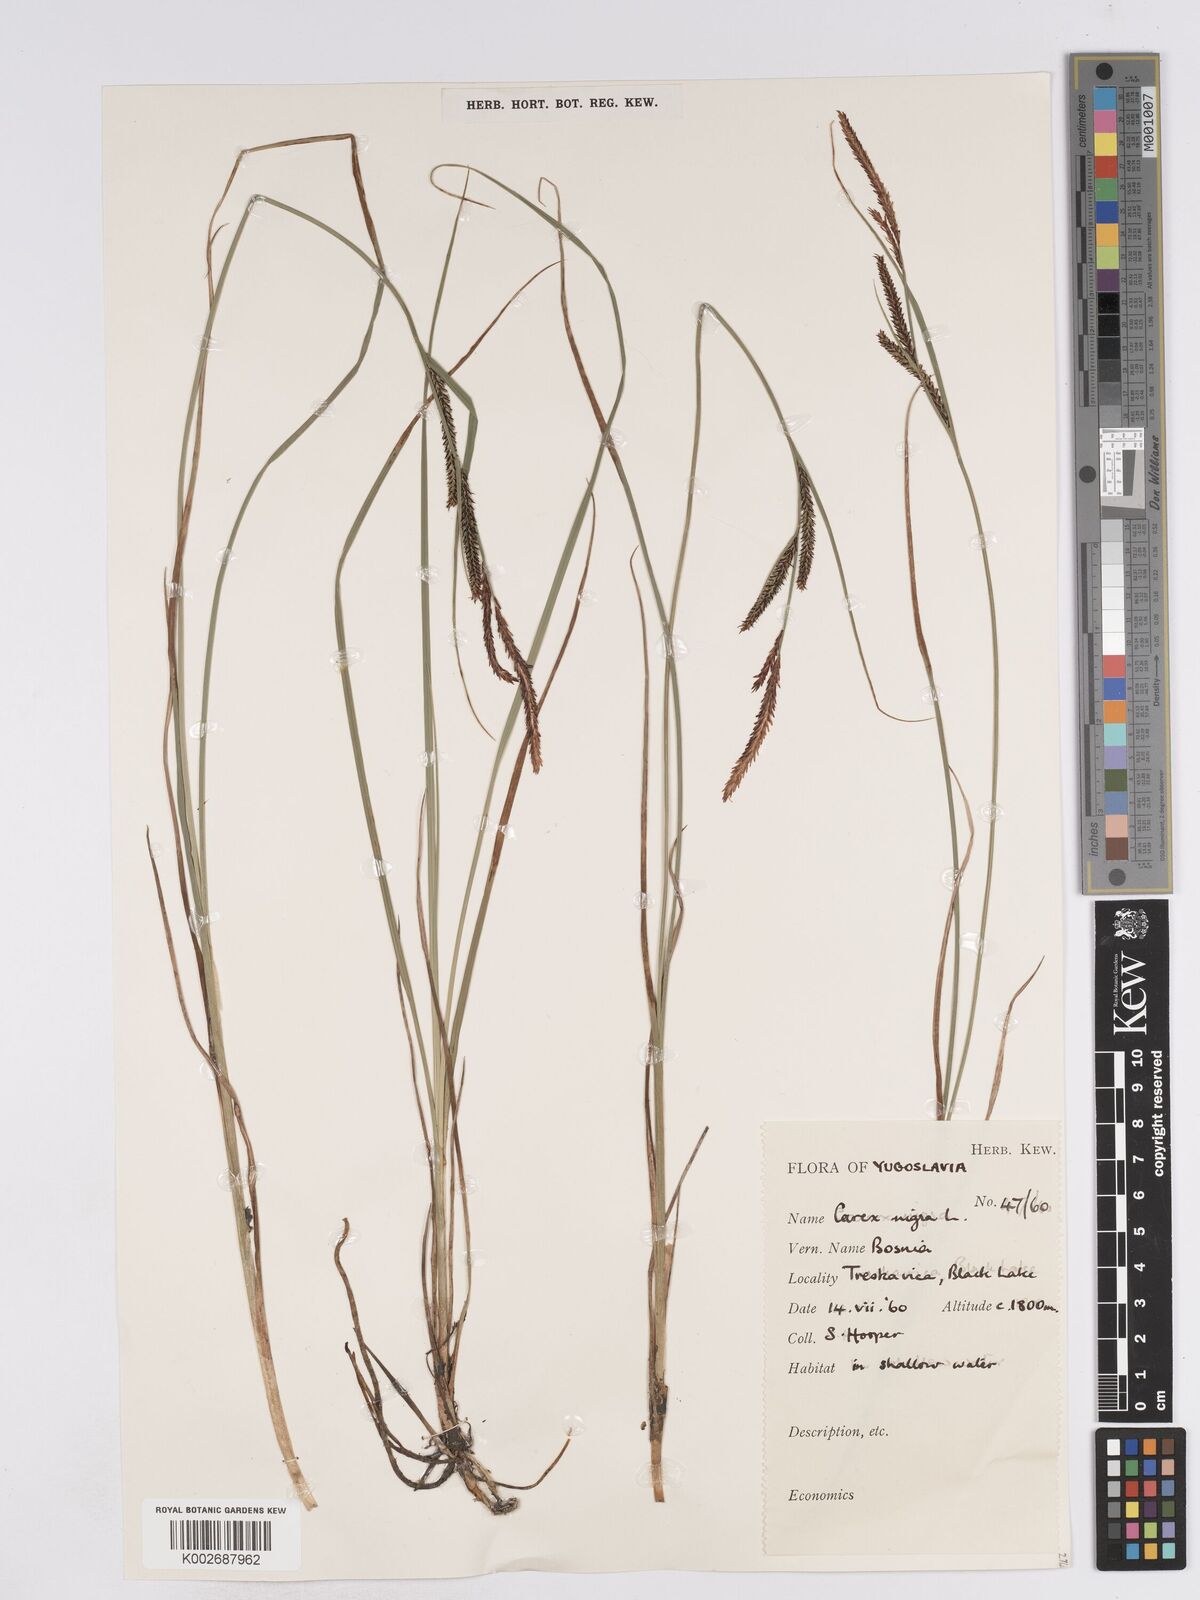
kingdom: Plantae
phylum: Tracheophyta
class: Liliopsida
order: Poales
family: Cyperaceae
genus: Carex
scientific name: Carex acuta
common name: Slender tufted-sedge
